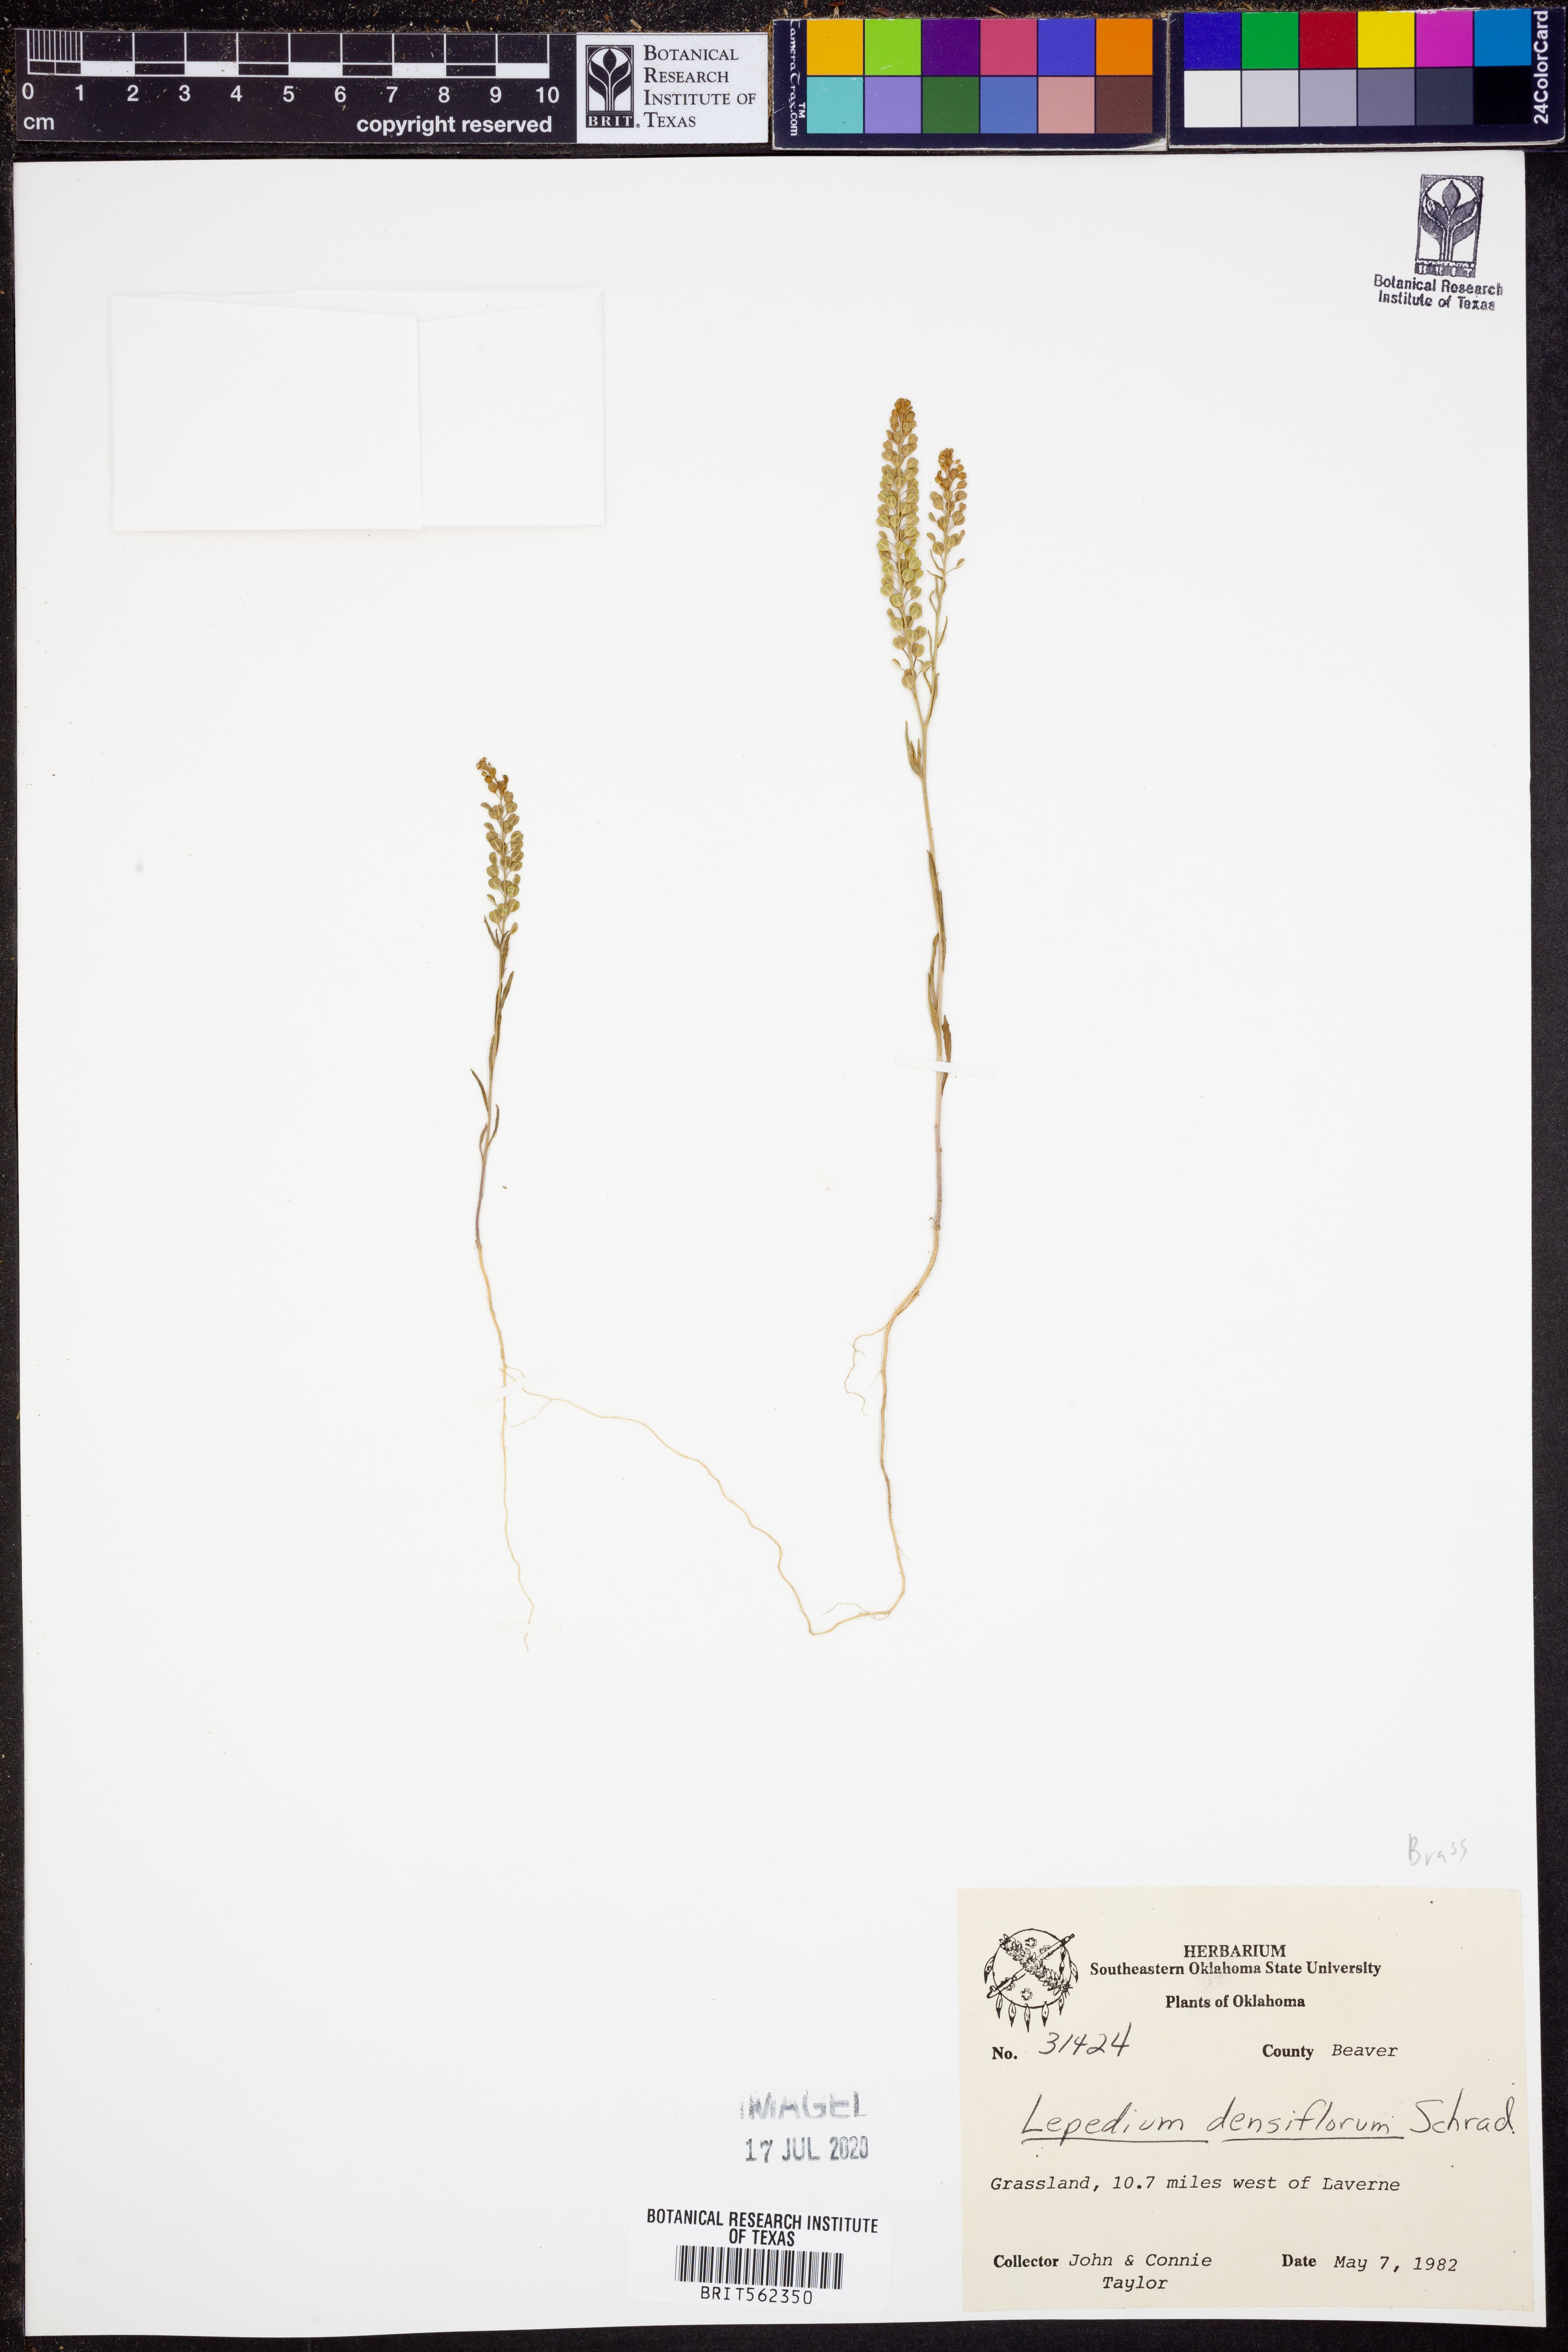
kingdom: Plantae
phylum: Tracheophyta
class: Magnoliopsida
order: Brassicales
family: Brassicaceae
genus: Lepidium
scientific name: Lepidium densiflorum
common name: Miner's pepperwort
